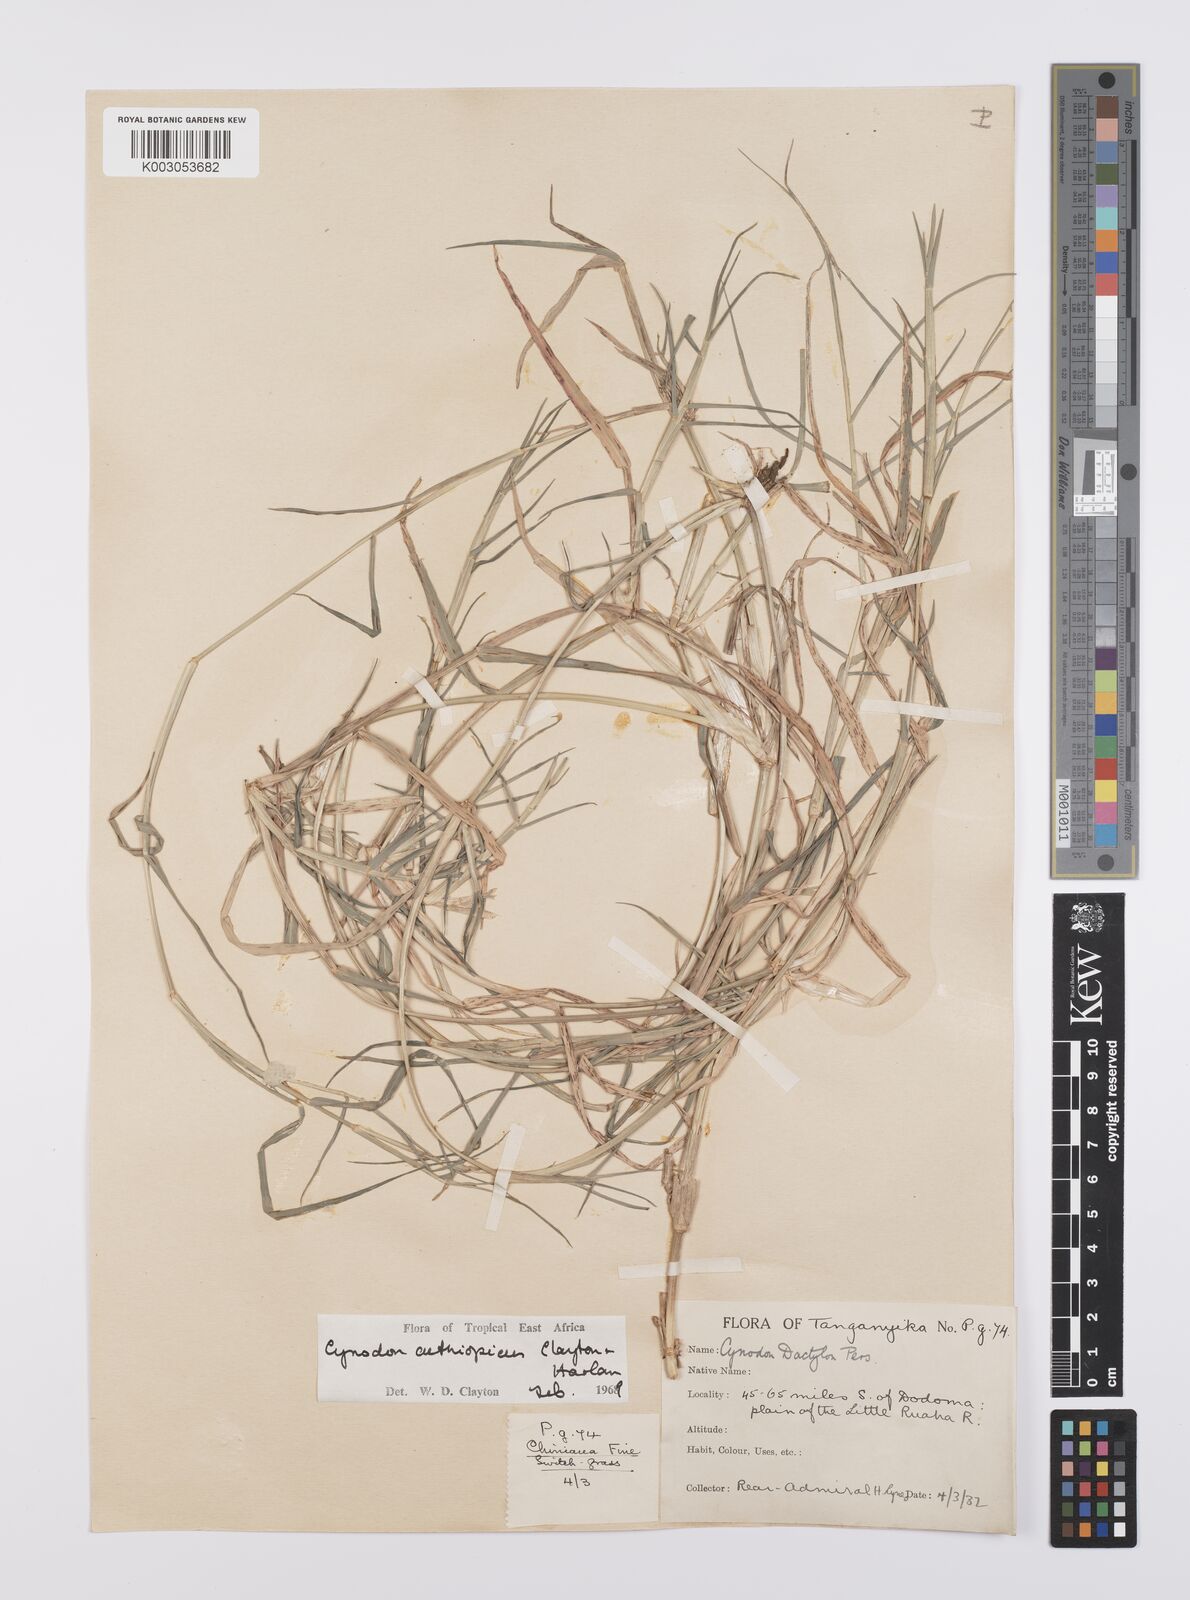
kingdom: Plantae
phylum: Tracheophyta
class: Liliopsida
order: Poales
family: Poaceae
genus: Cynodon
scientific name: Cynodon aethiopicus
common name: Ethiopian dogstooth grass
